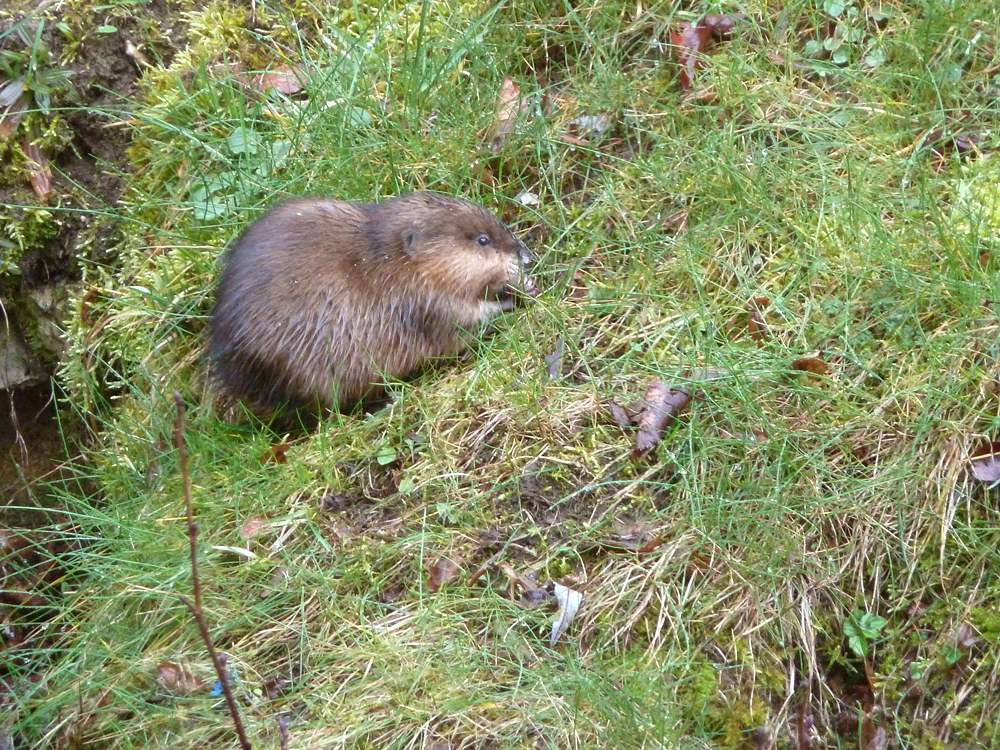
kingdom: Animalia
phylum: Chordata
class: Mammalia
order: Rodentia
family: Cricetidae
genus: Ondatra
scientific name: Ondatra zibethicus
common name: Muskrat
